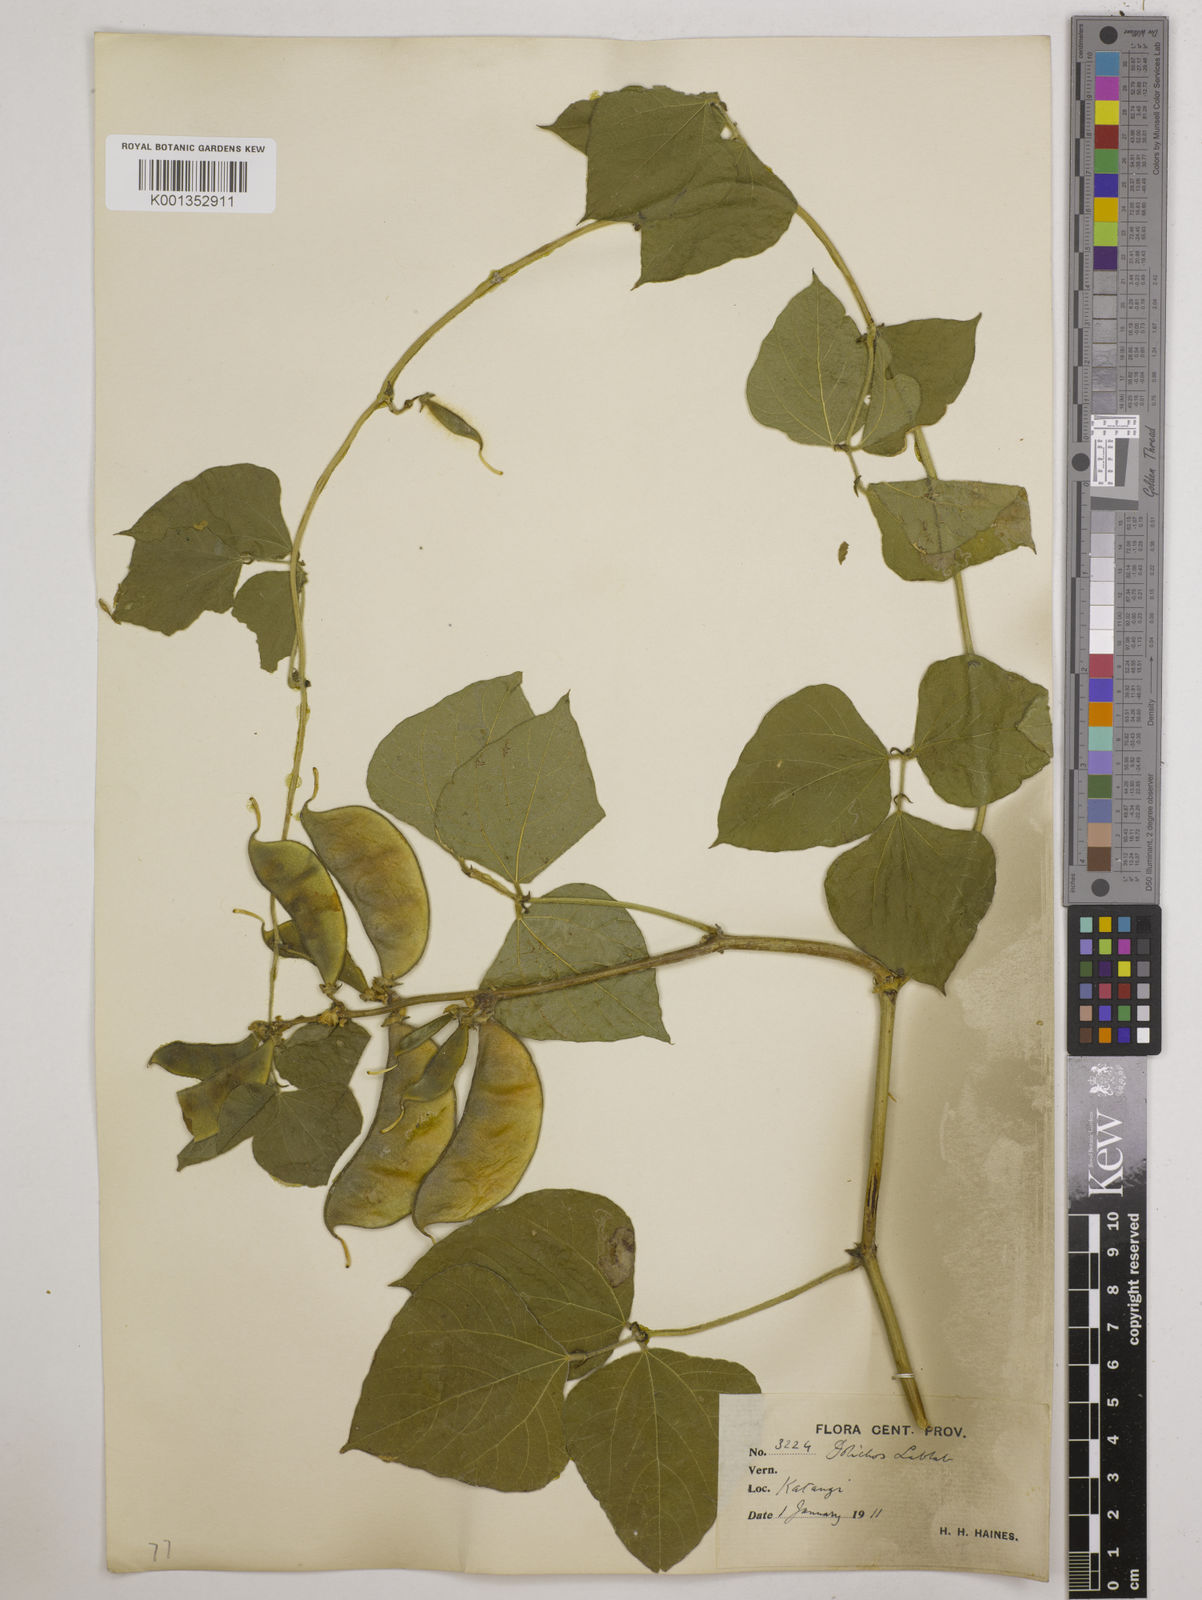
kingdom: Plantae
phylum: Tracheophyta
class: Magnoliopsida
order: Fabales
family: Fabaceae
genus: Lablab
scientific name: Lablab purpureus
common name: Lablab-bean
